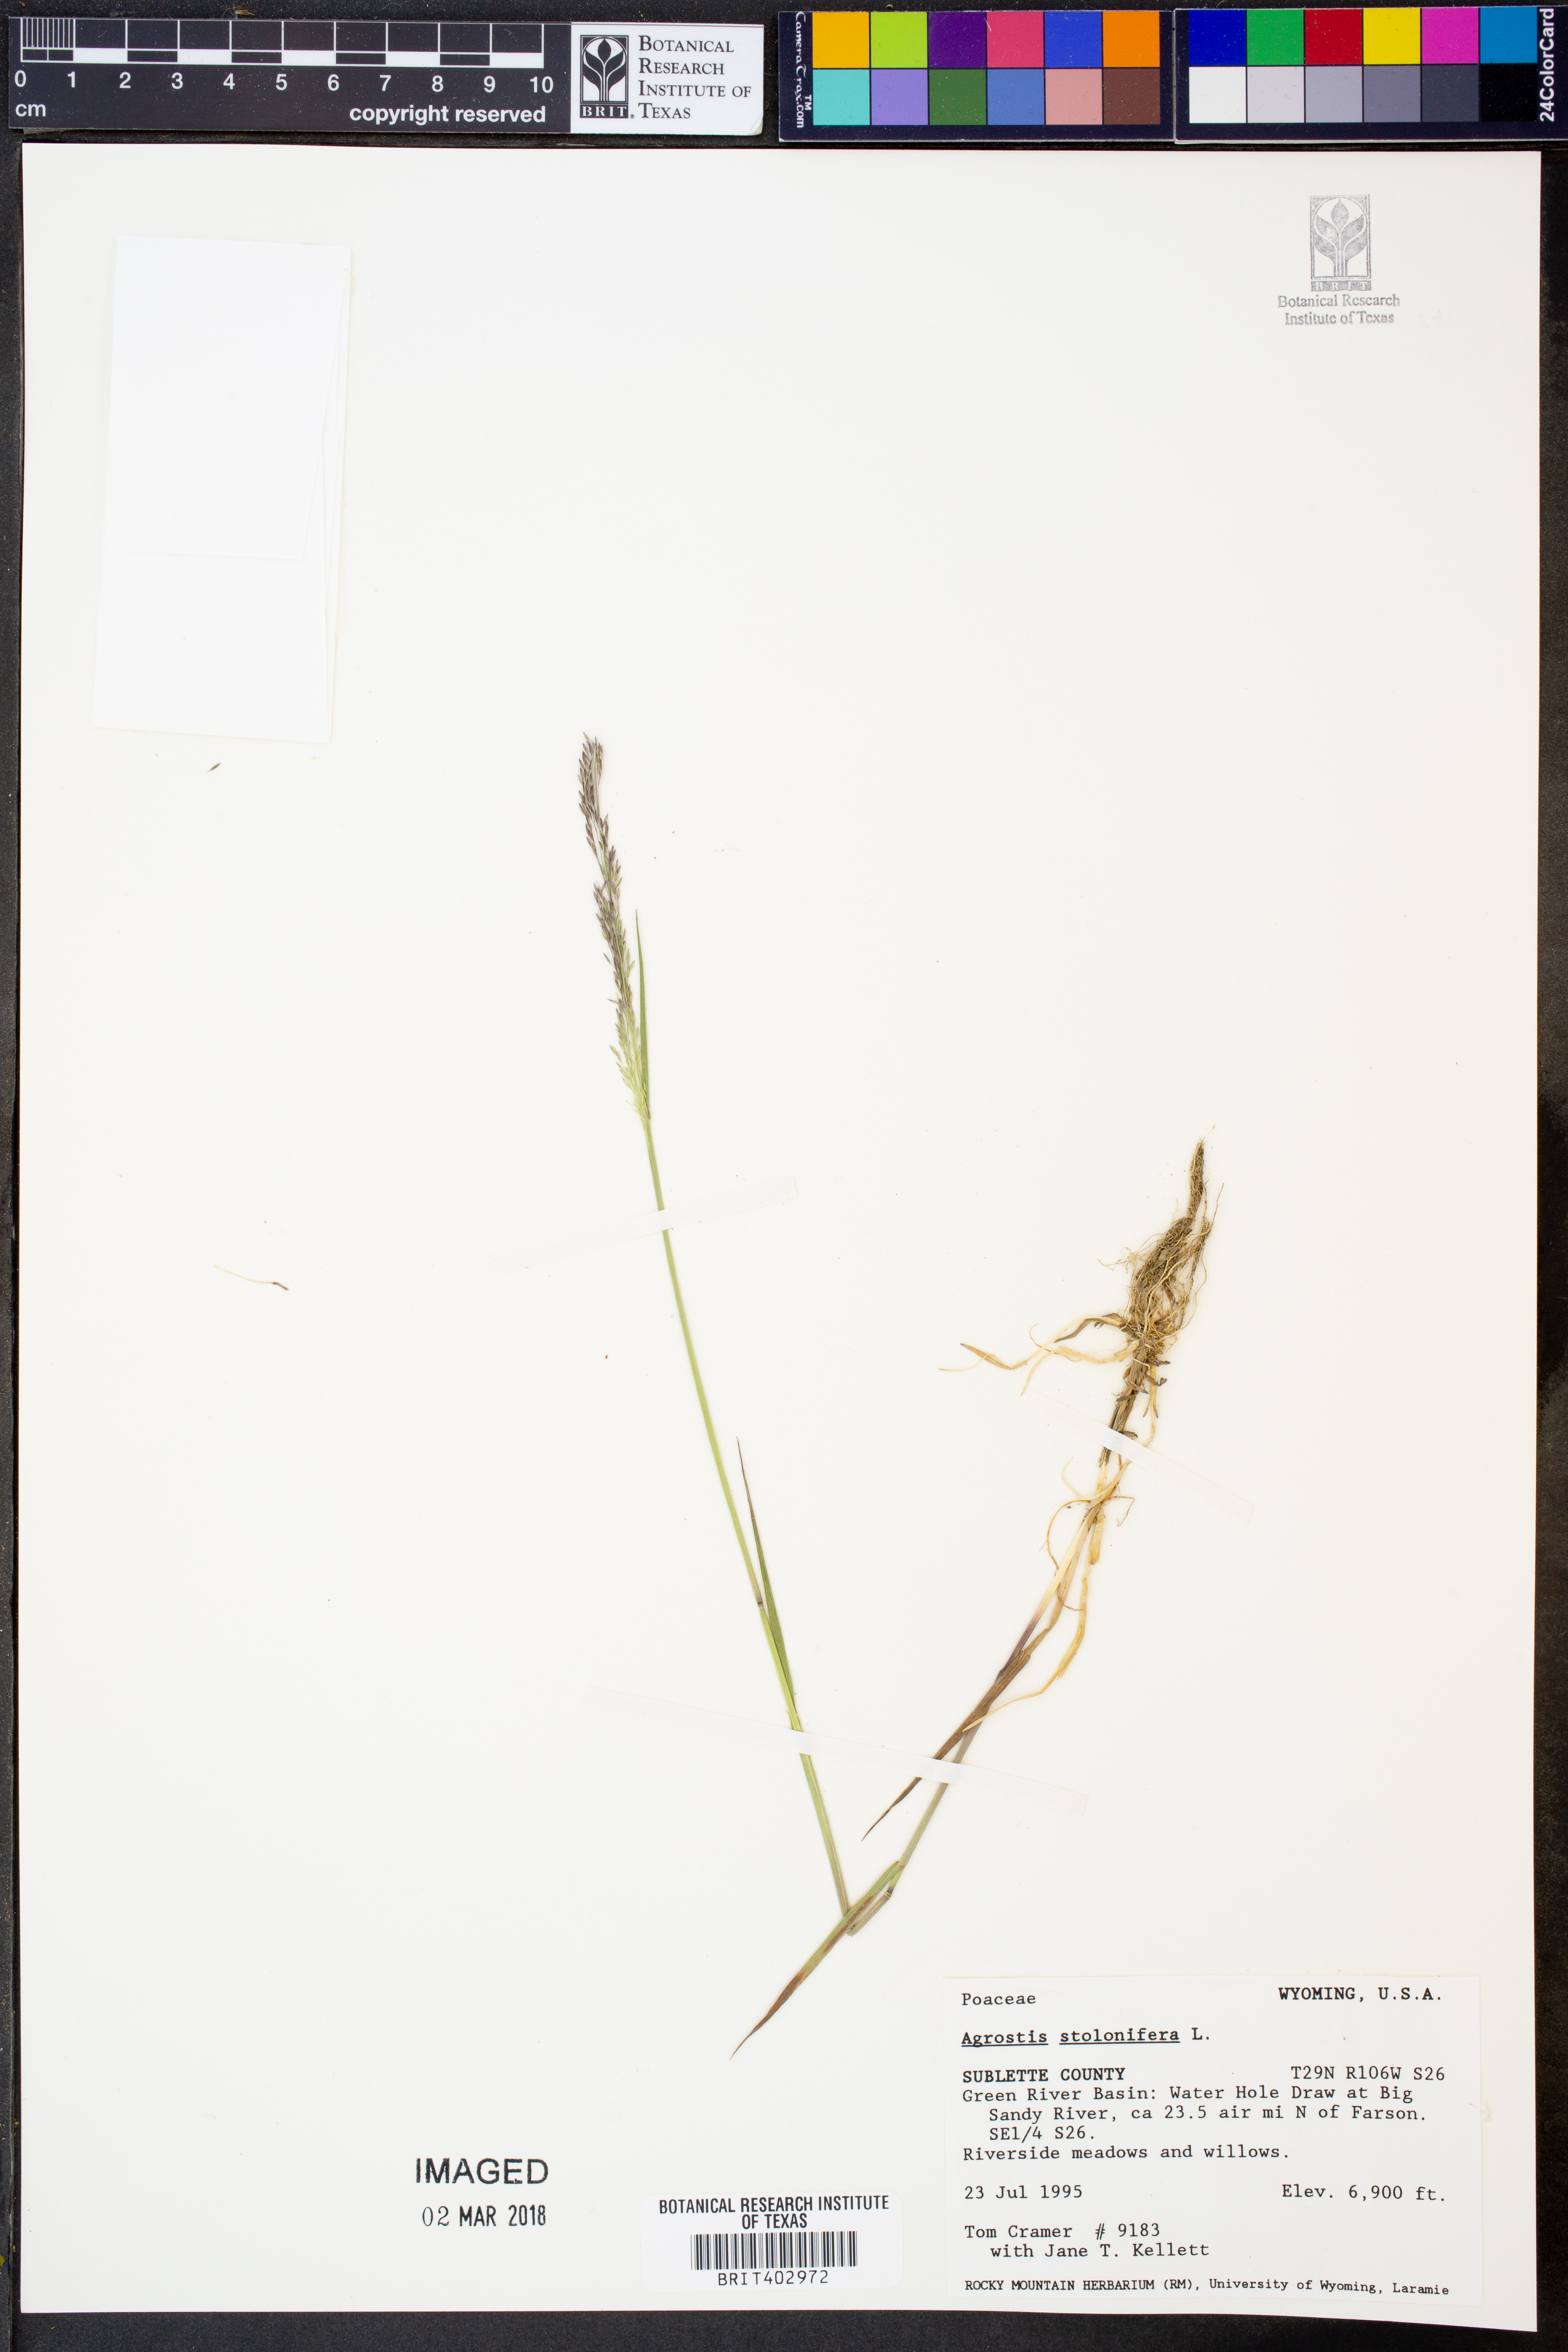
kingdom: Plantae
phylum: Tracheophyta
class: Liliopsida
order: Poales
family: Poaceae
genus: Agrostis
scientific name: Agrostis stolonifera
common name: Creeping bentgrass
